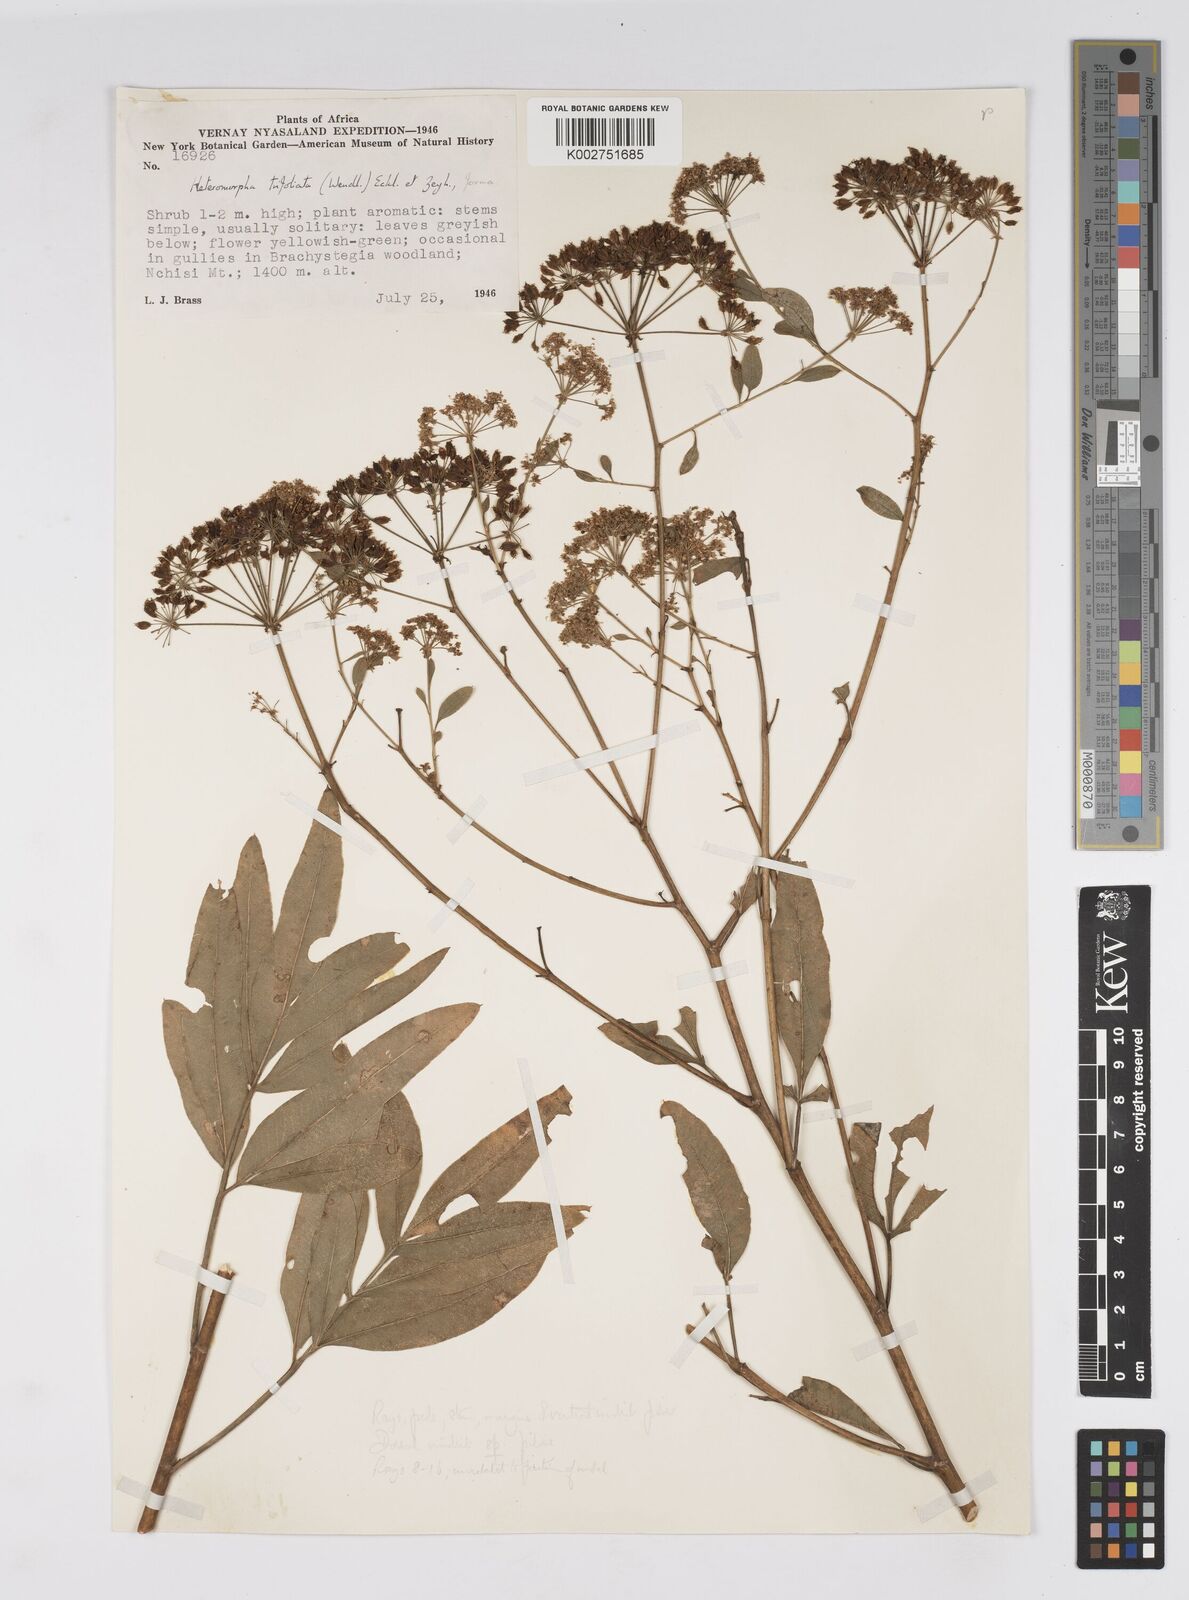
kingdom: Plantae
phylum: Tracheophyta
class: Magnoliopsida
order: Apiales
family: Apiaceae
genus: Heteromorpha
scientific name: Heteromorpha stenophylla
